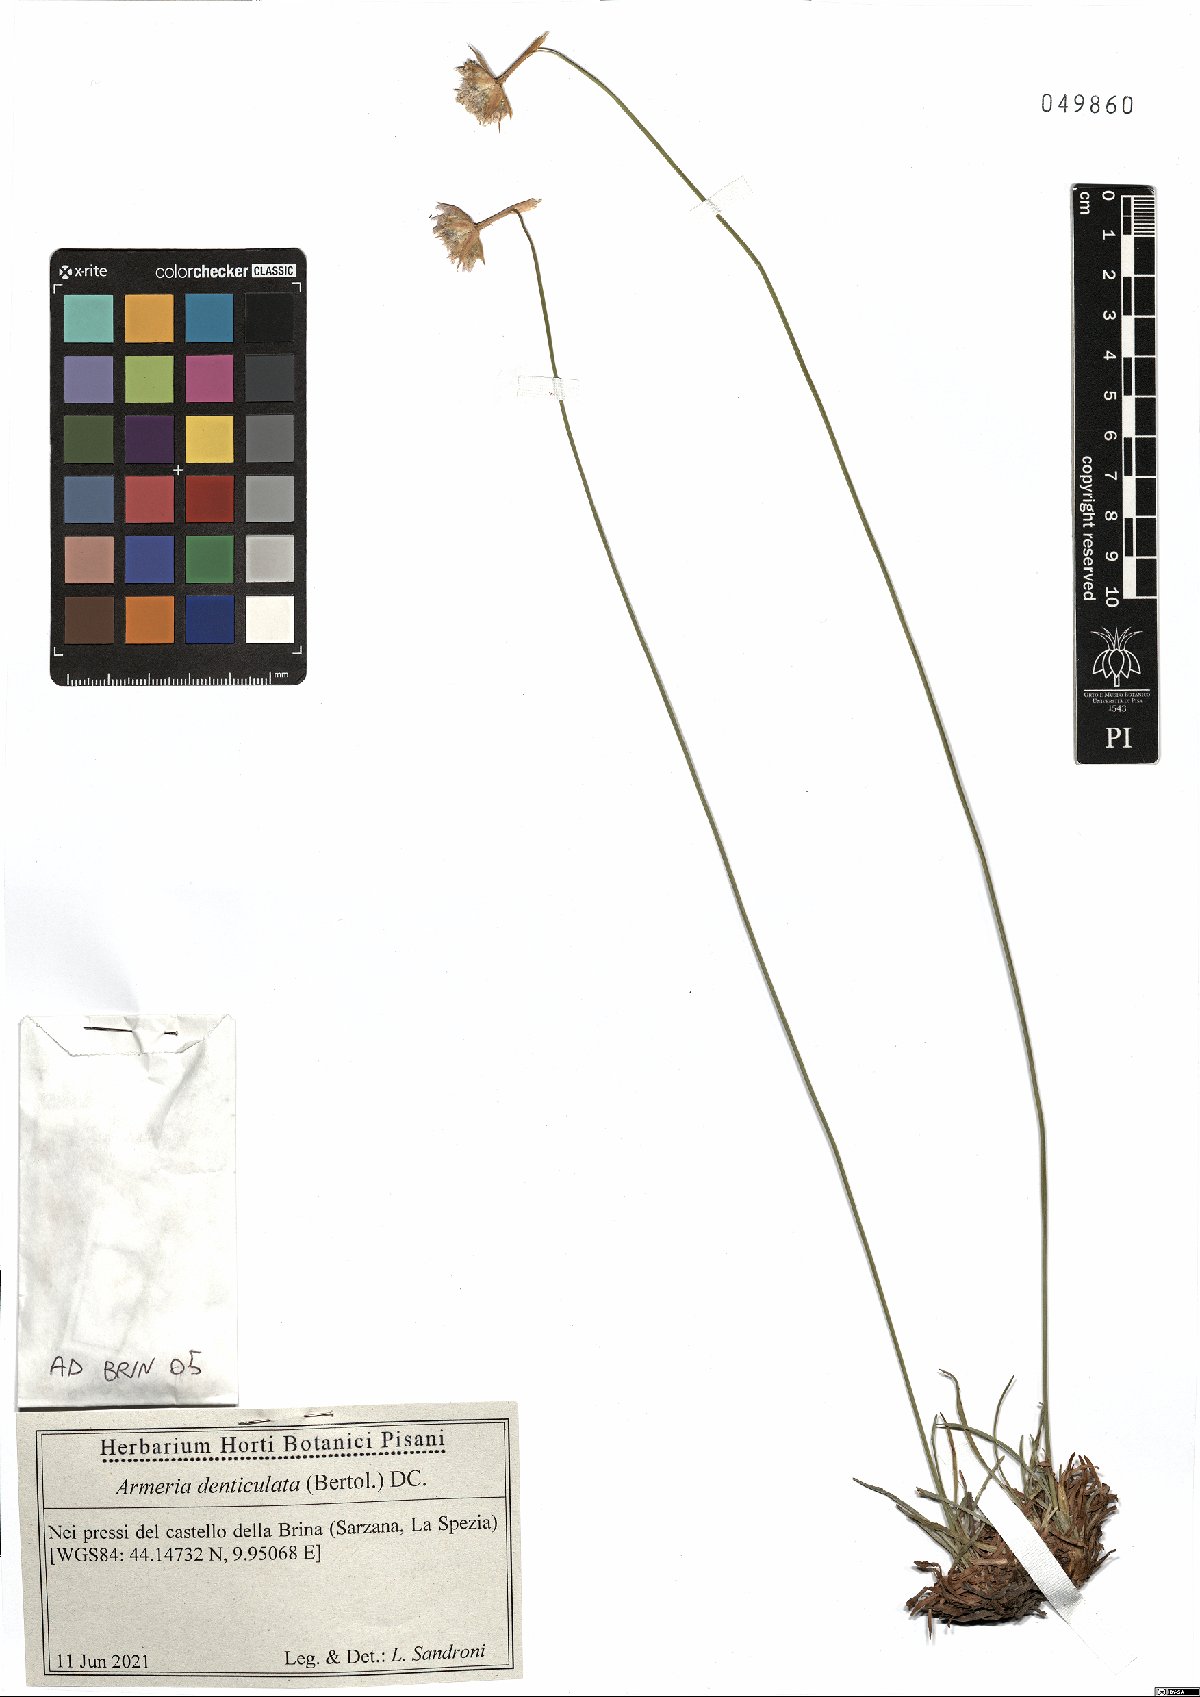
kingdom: Plantae
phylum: Tracheophyta
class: Magnoliopsida
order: Caryophyllales
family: Plumbaginaceae
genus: Armeria
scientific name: Armeria denticulata
